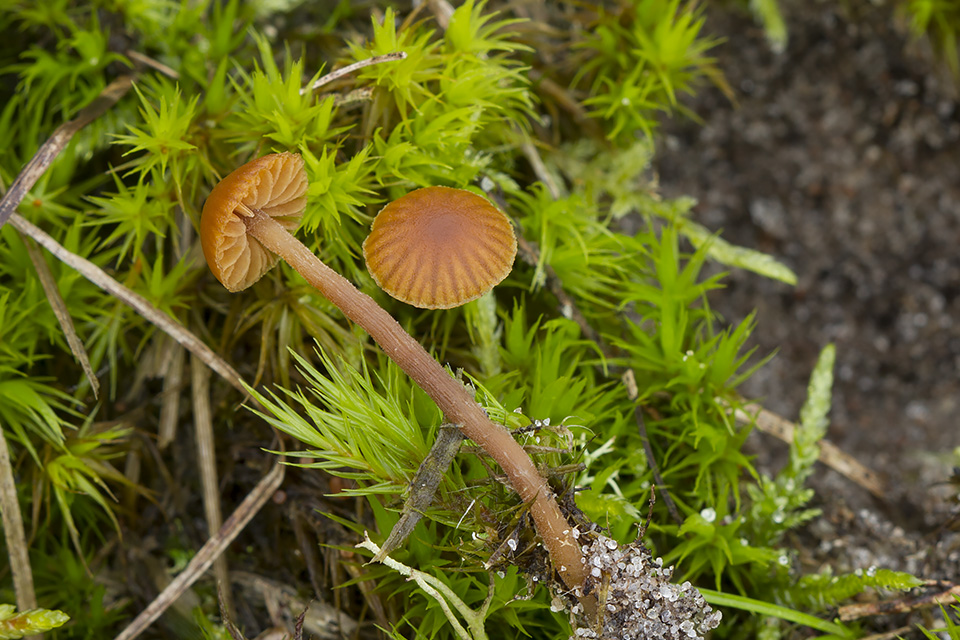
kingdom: Fungi
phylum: Basidiomycota
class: Agaricomycetes
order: Agaricales
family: Hymenogastraceae
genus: Galerina
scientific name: Galerina atkinsoniana
